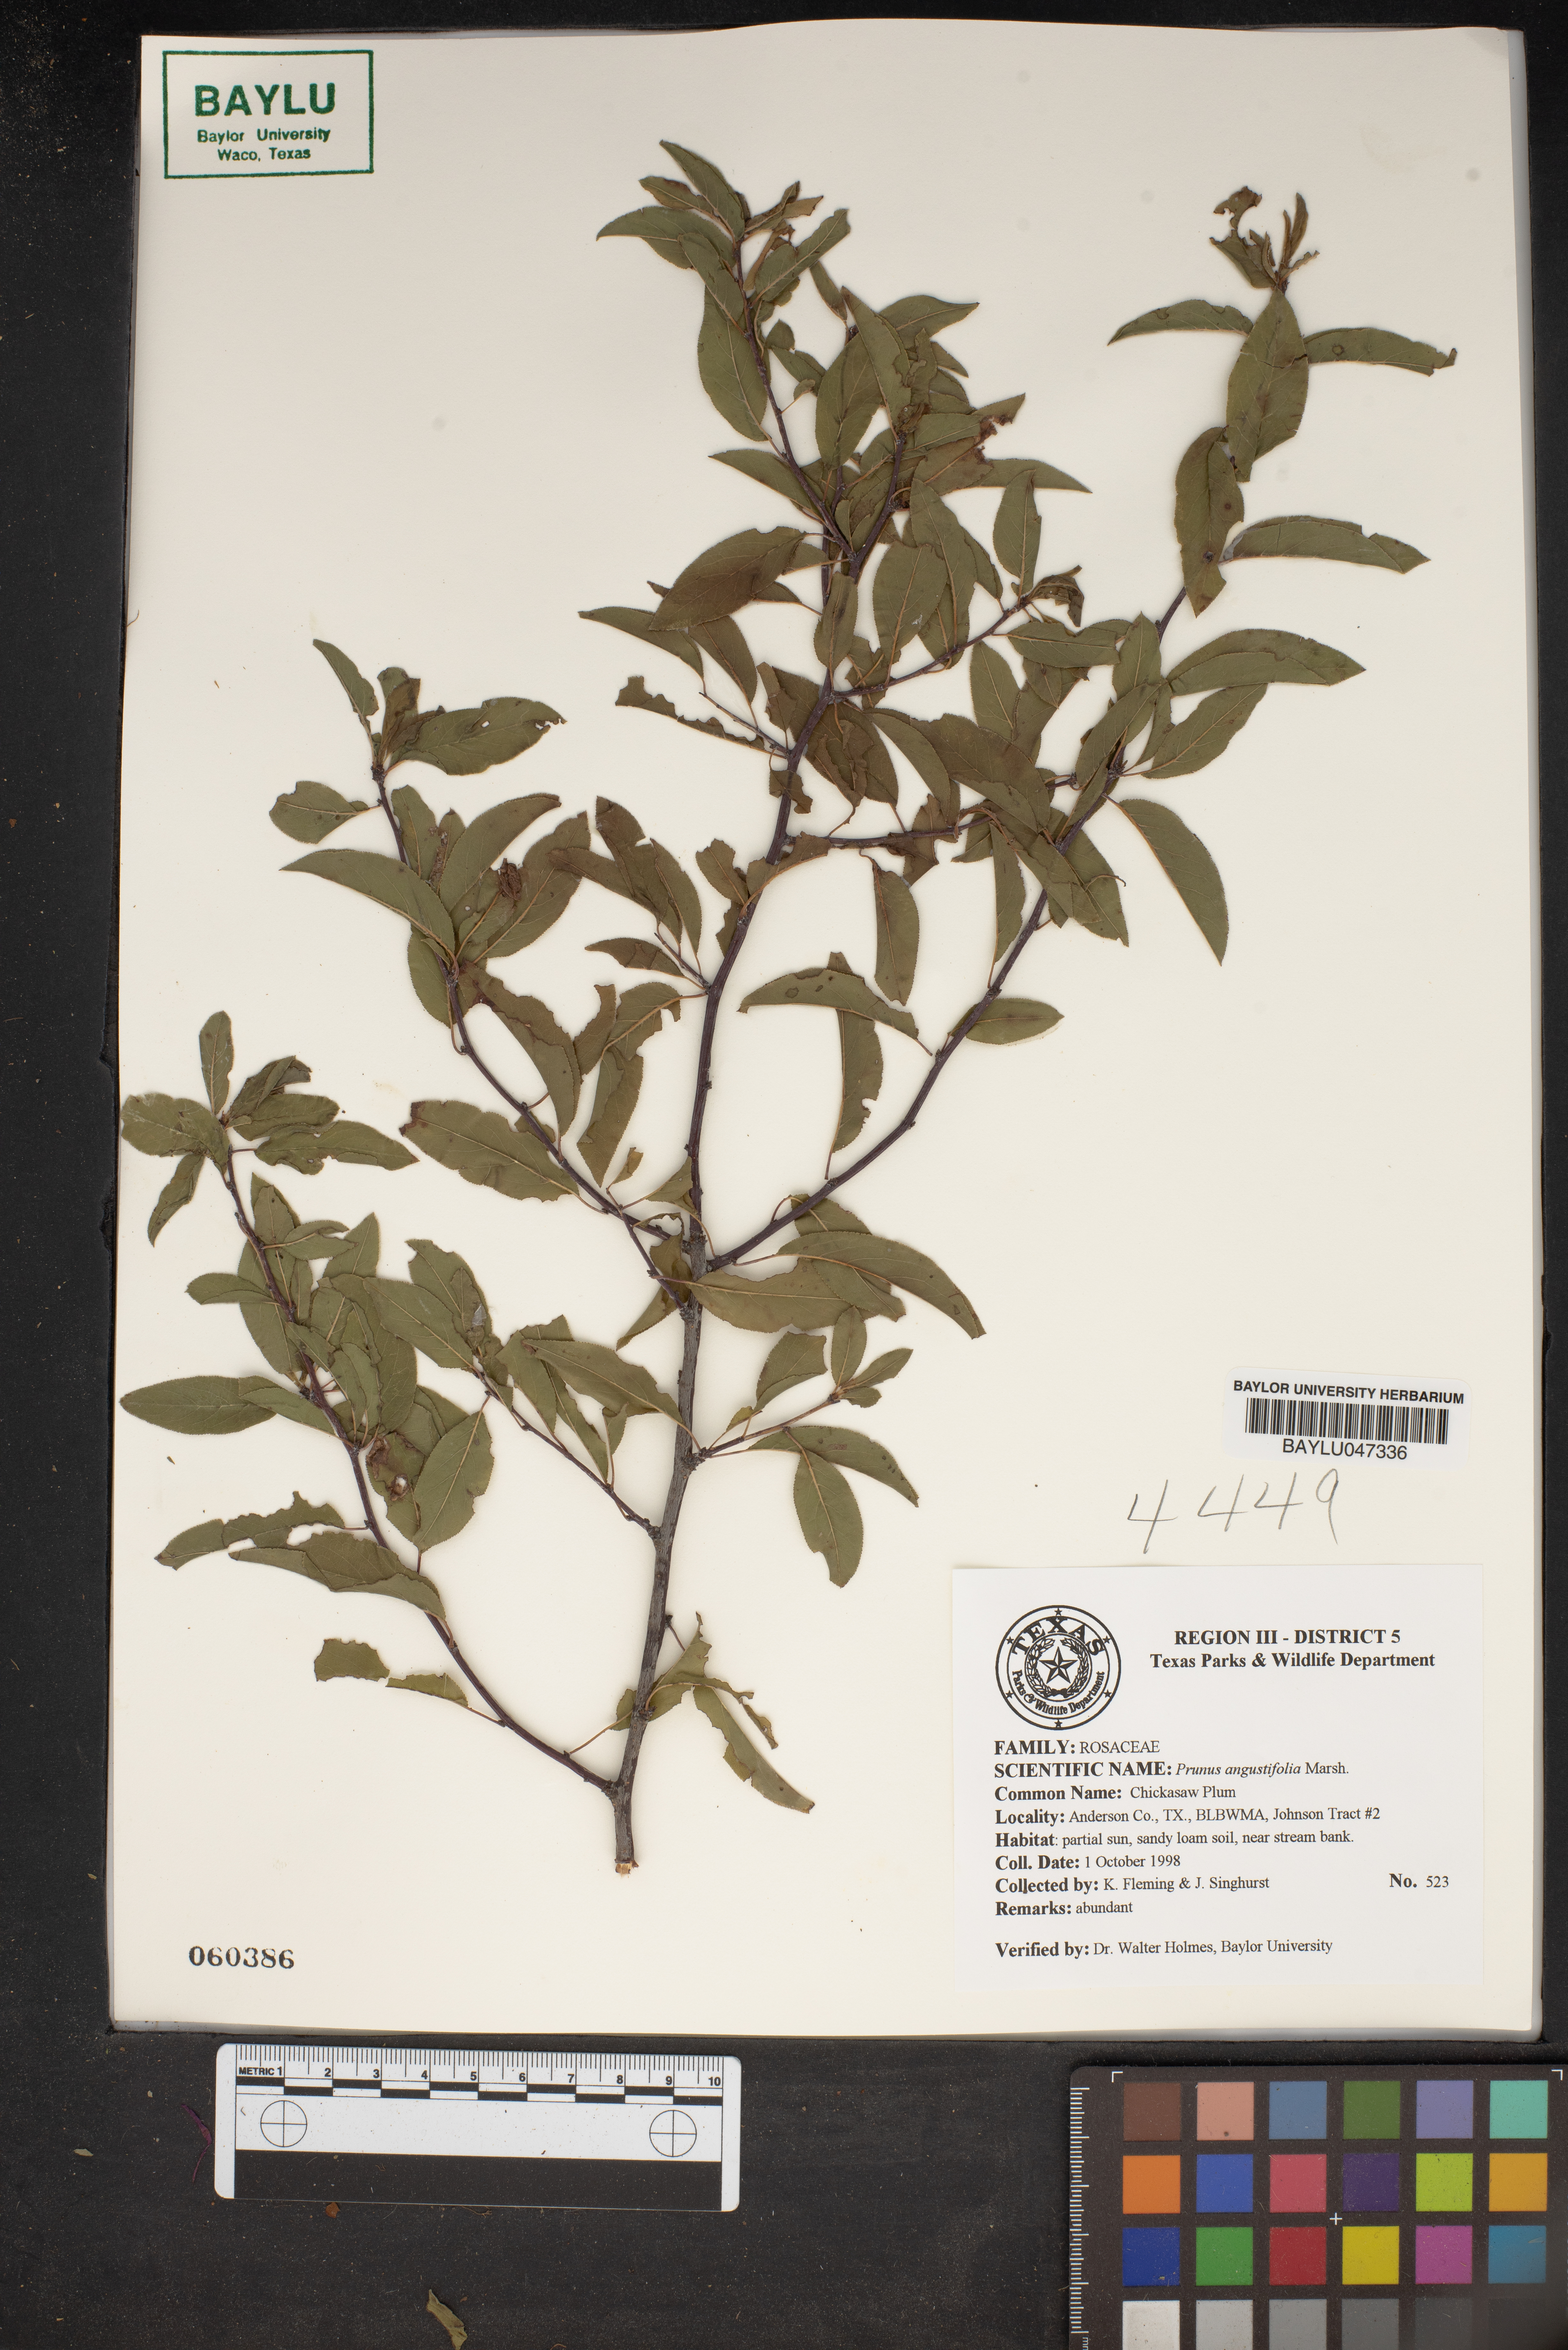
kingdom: Plantae
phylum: Tracheophyta
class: Magnoliopsida
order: Rosales
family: Rosaceae
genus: Prunus
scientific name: Prunus angustifolia
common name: Cherokee plum
